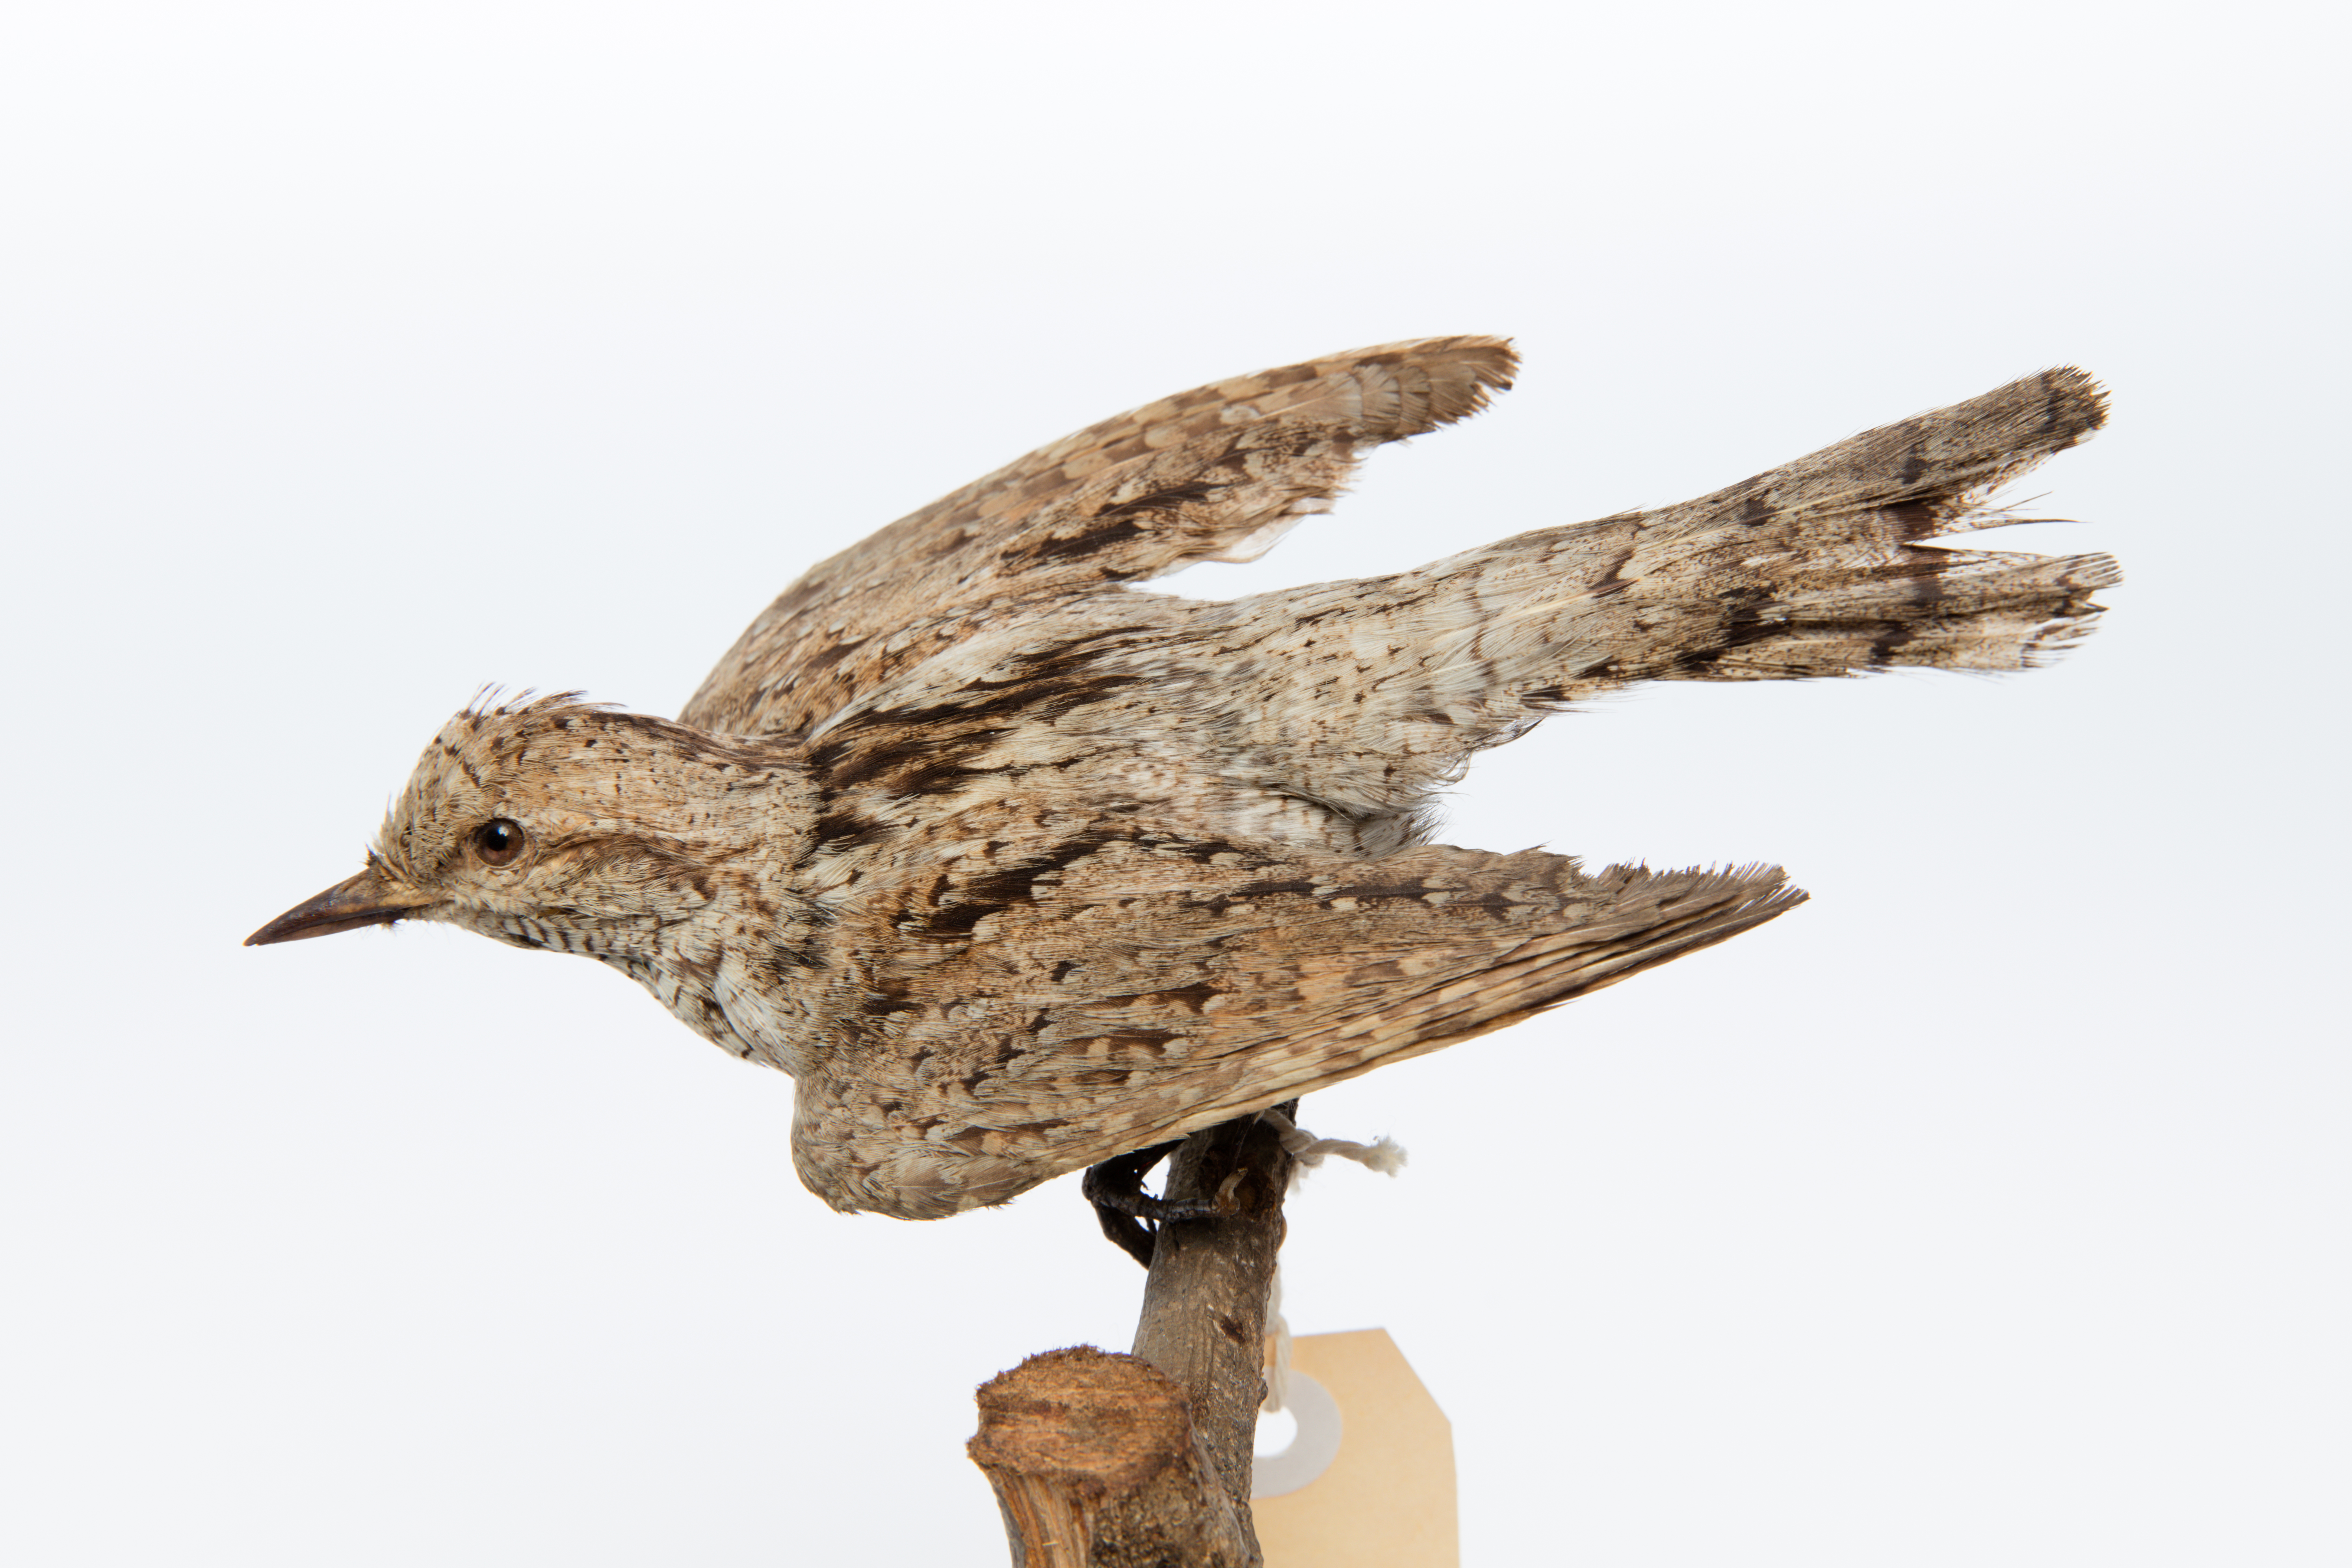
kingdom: Animalia
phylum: Chordata
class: Aves
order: Piciformes
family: Picidae
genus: Jynx
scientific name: Jynx torquilla
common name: Eurasian wryneck
